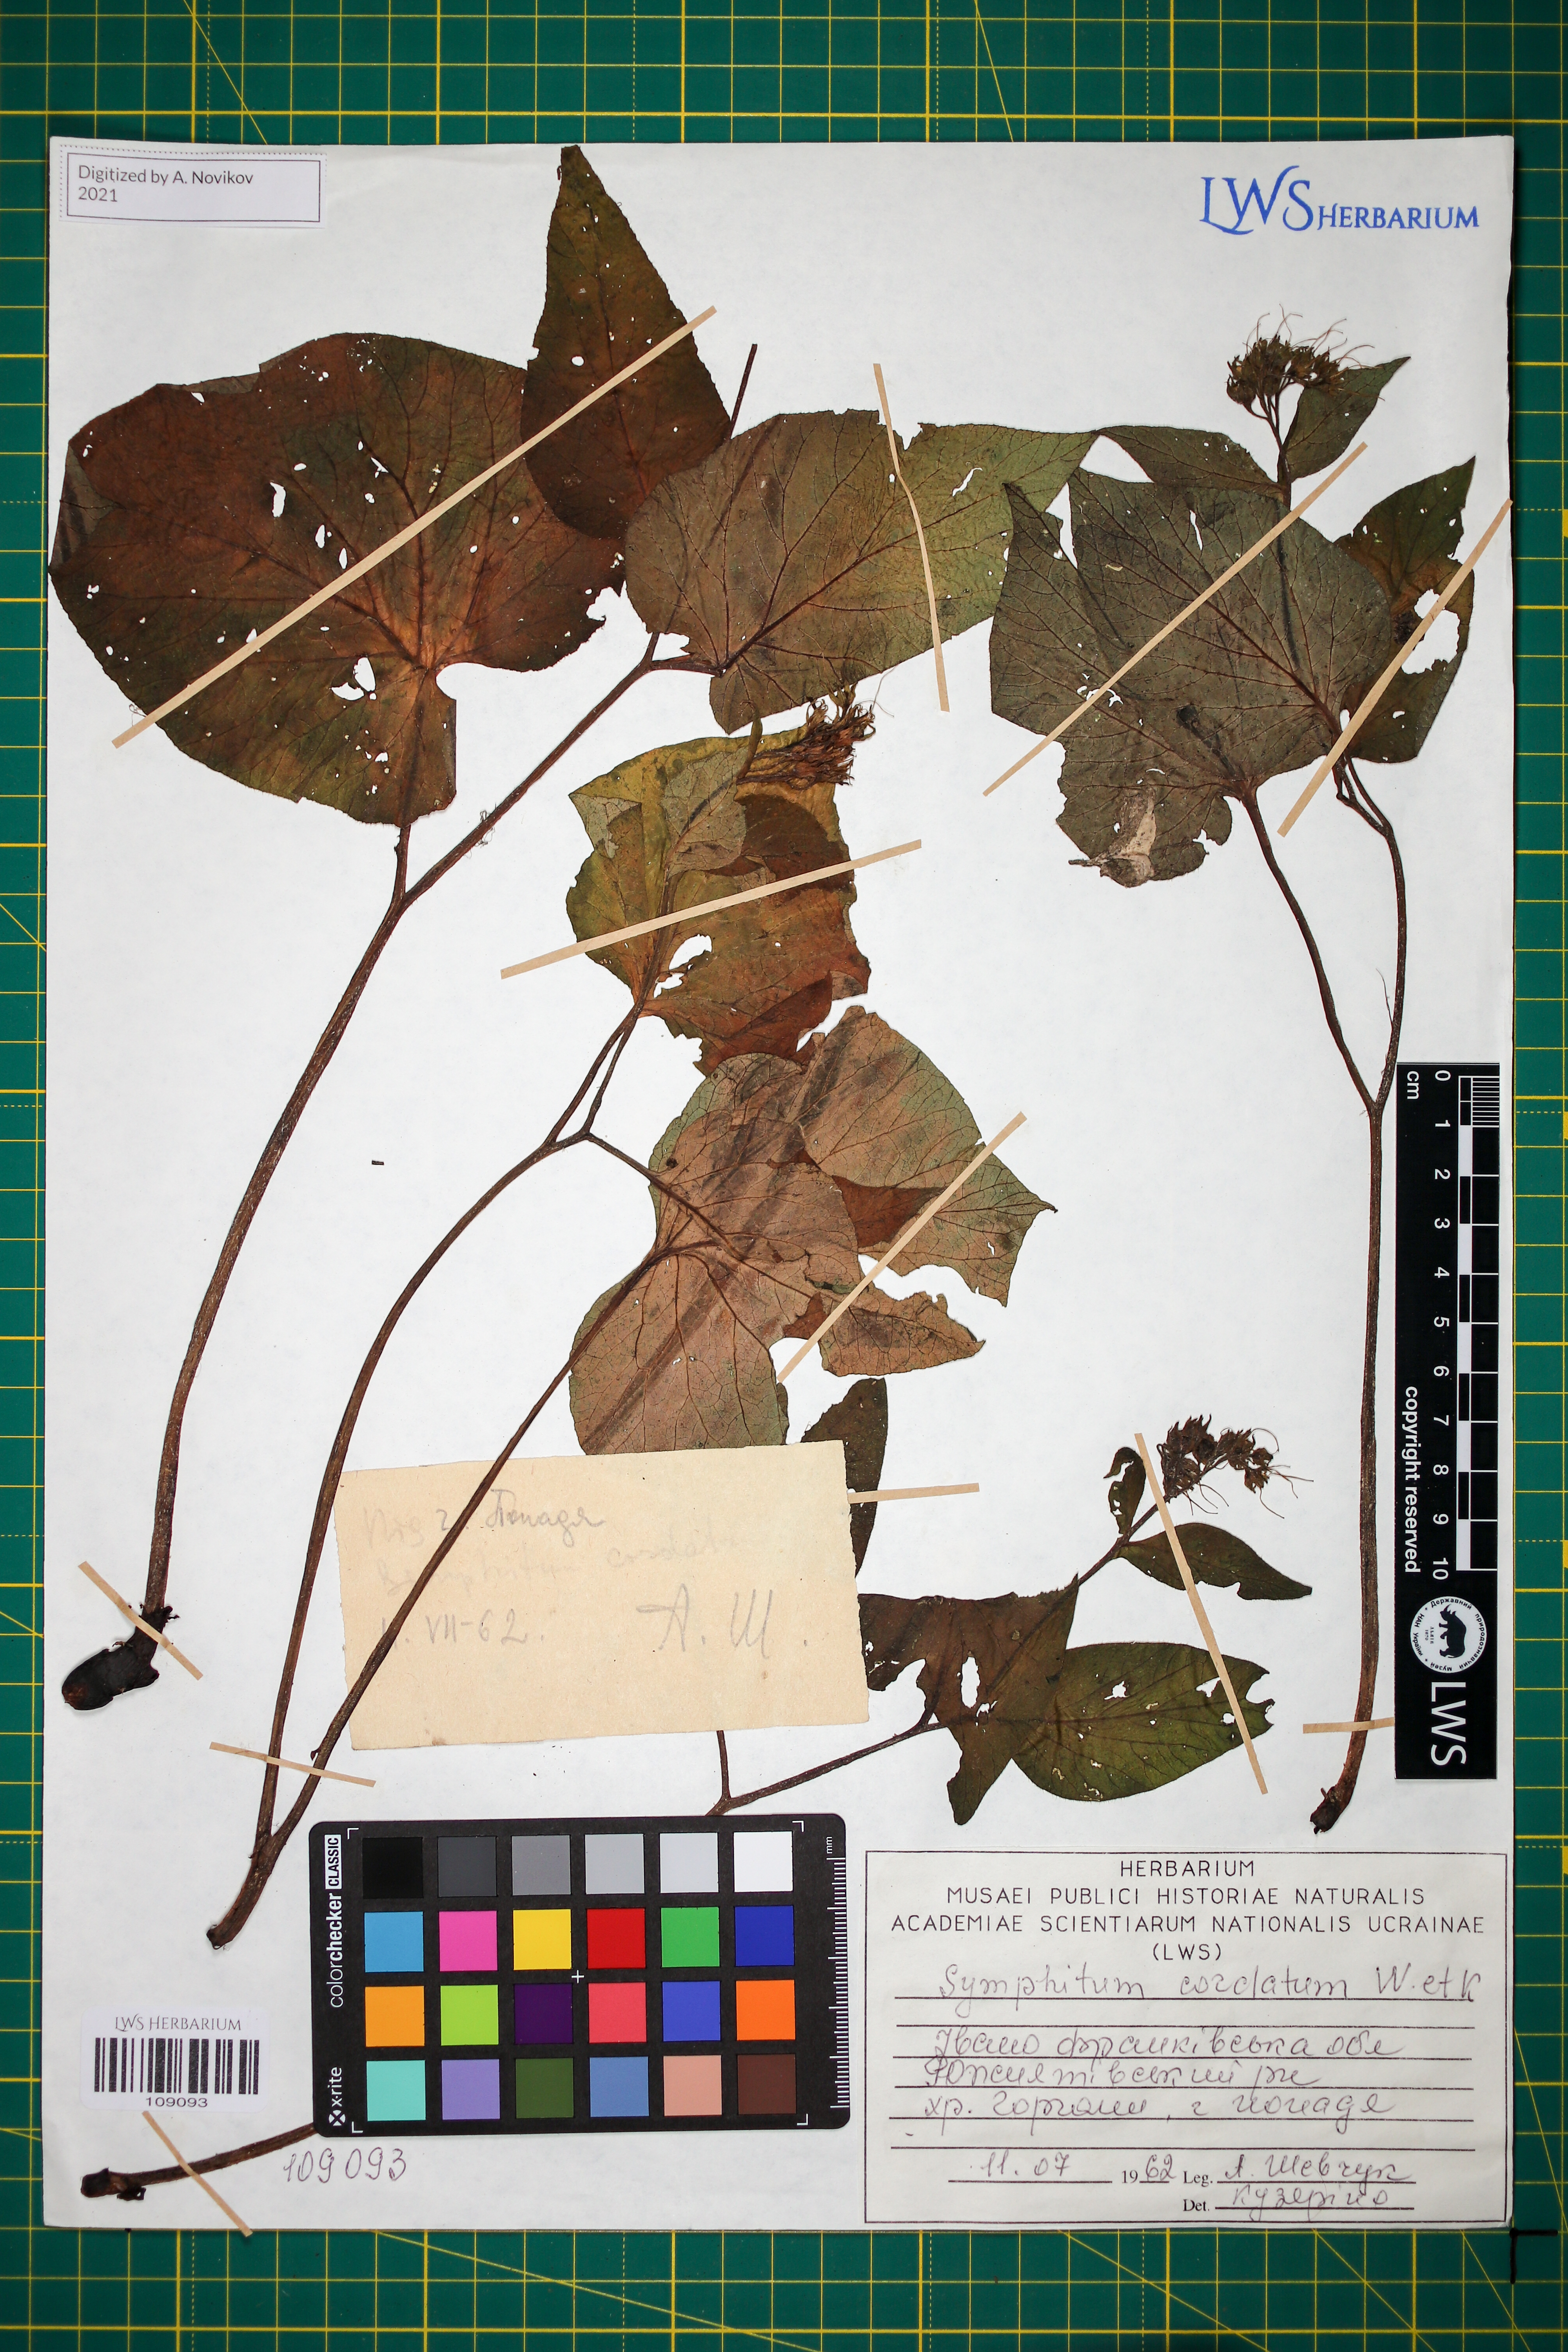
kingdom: Plantae
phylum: Tracheophyta
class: Magnoliopsida
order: Boraginales
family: Boraginaceae
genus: Symphytum
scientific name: Symphytum cordatum
